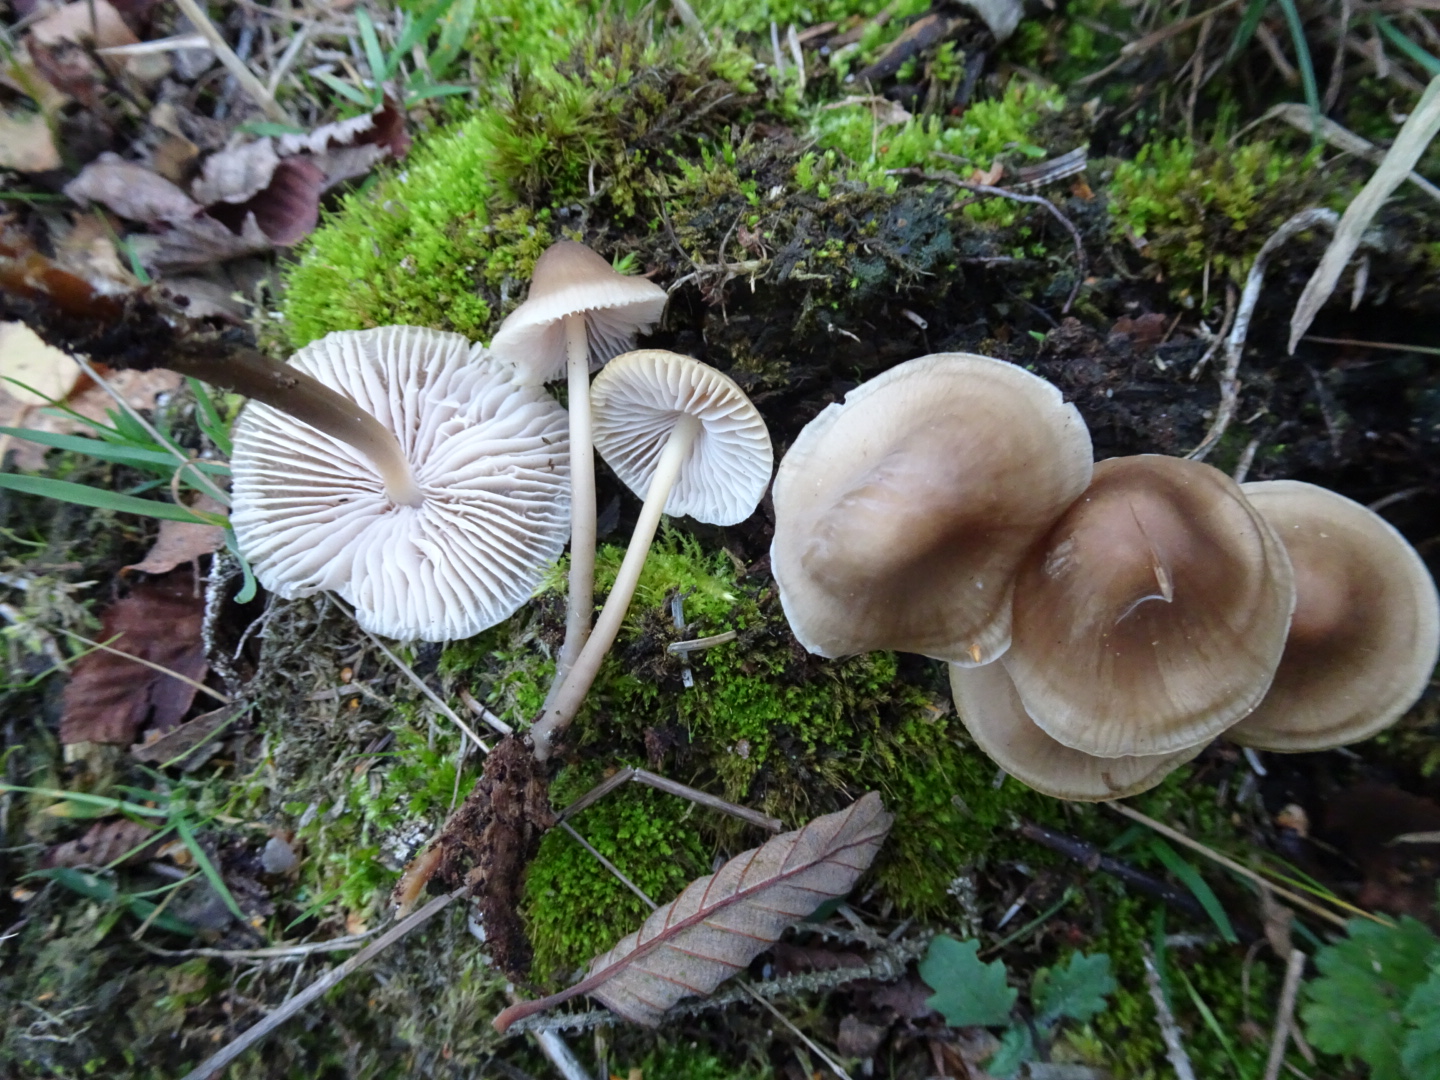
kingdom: Fungi
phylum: Basidiomycota
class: Agaricomycetes
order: Agaricales
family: Mycenaceae
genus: Mycena
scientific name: Mycena galericulata
